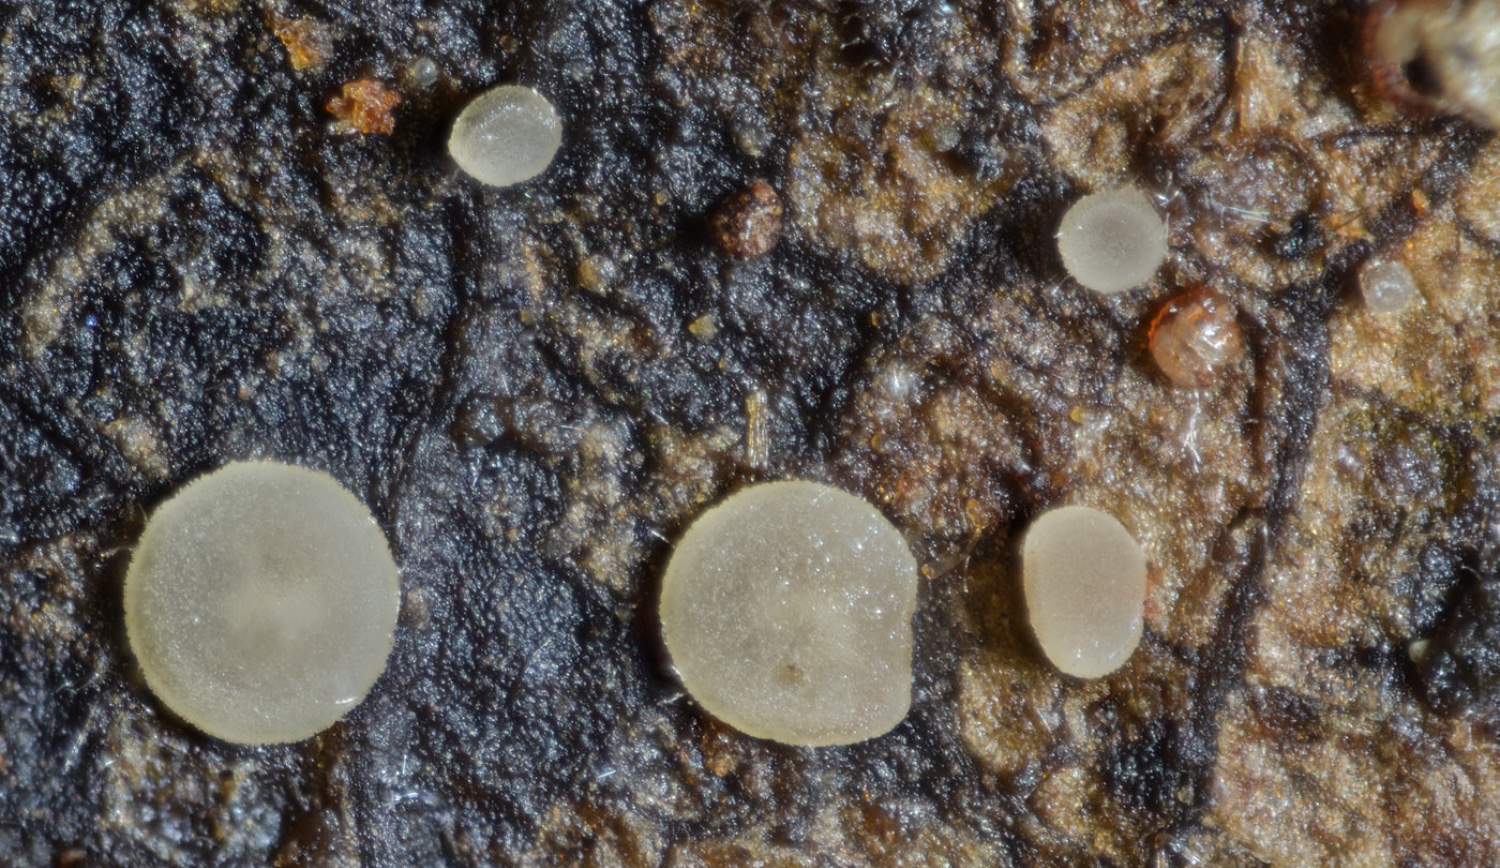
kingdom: Fungi
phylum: Ascomycota
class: Leotiomycetes
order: Helotiales
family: Pezizellaceae
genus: Allophylaria
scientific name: Allophylaria
